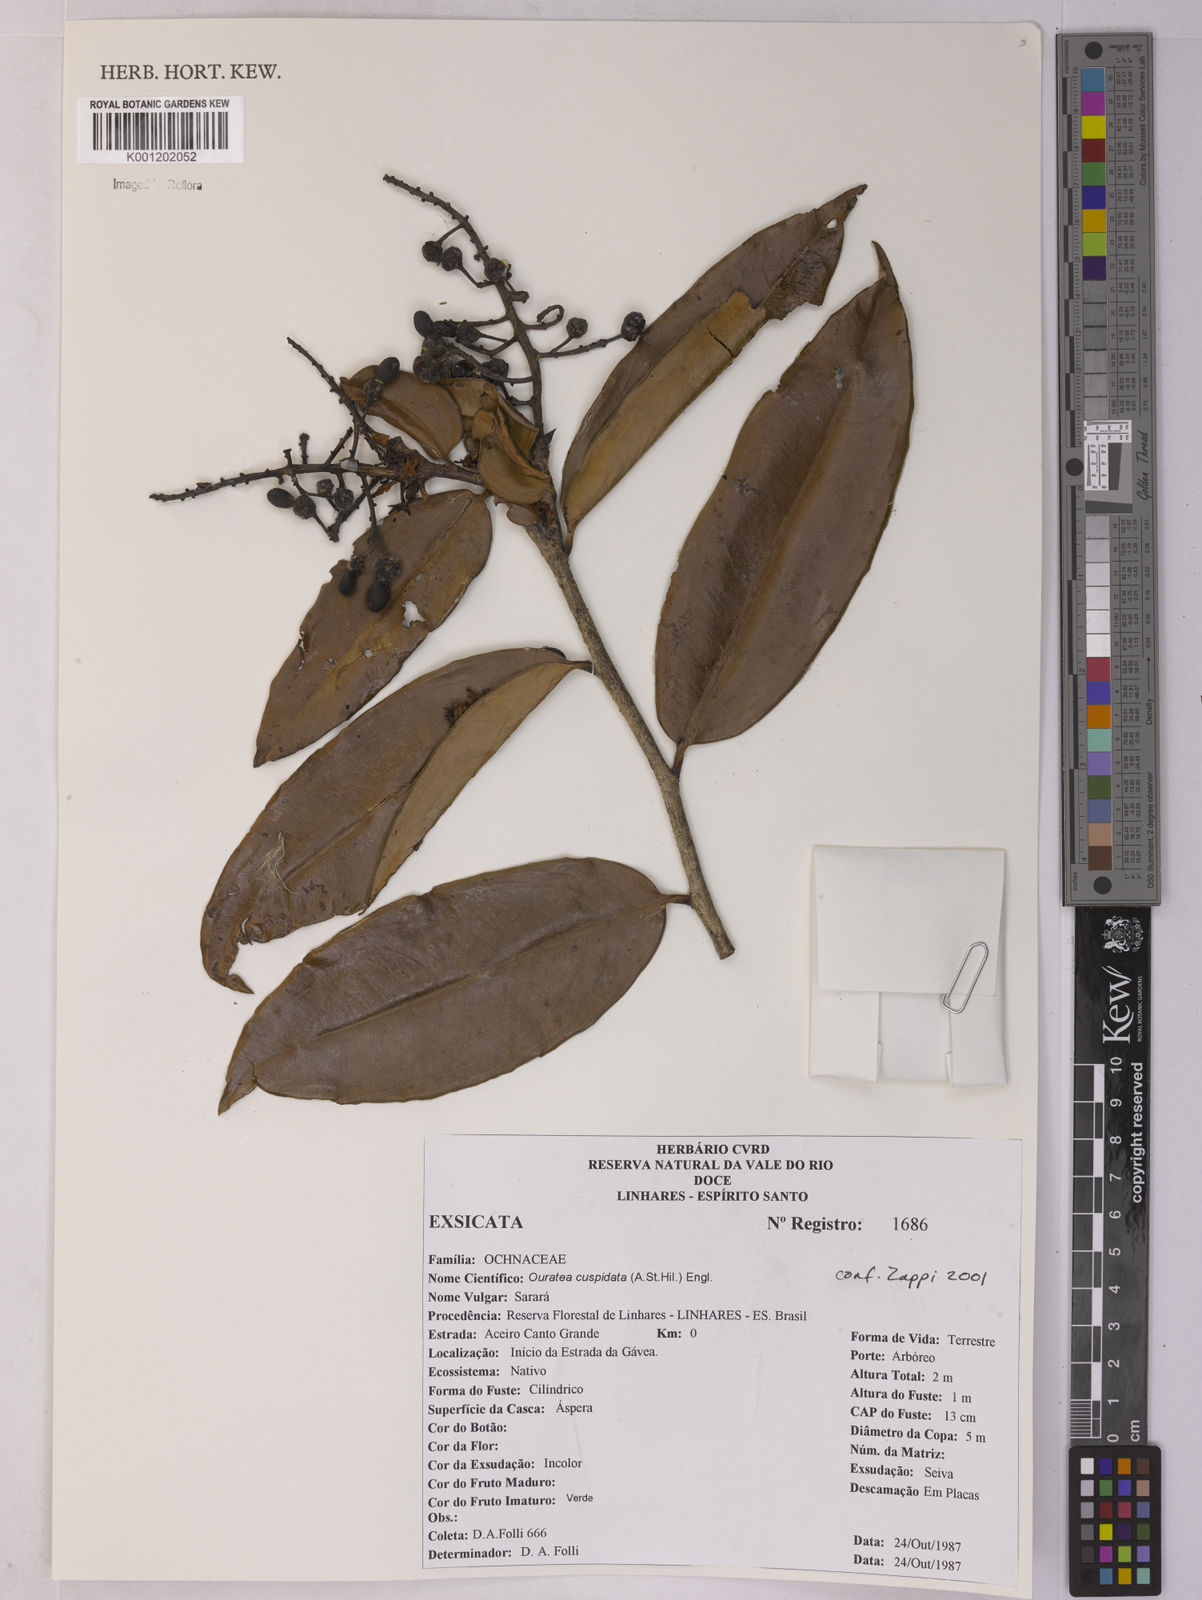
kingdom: Plantae
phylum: Tracheophyta
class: Magnoliopsida
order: Malpighiales
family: Ochnaceae
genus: Ouratea
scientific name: Ouratea cuspidata
